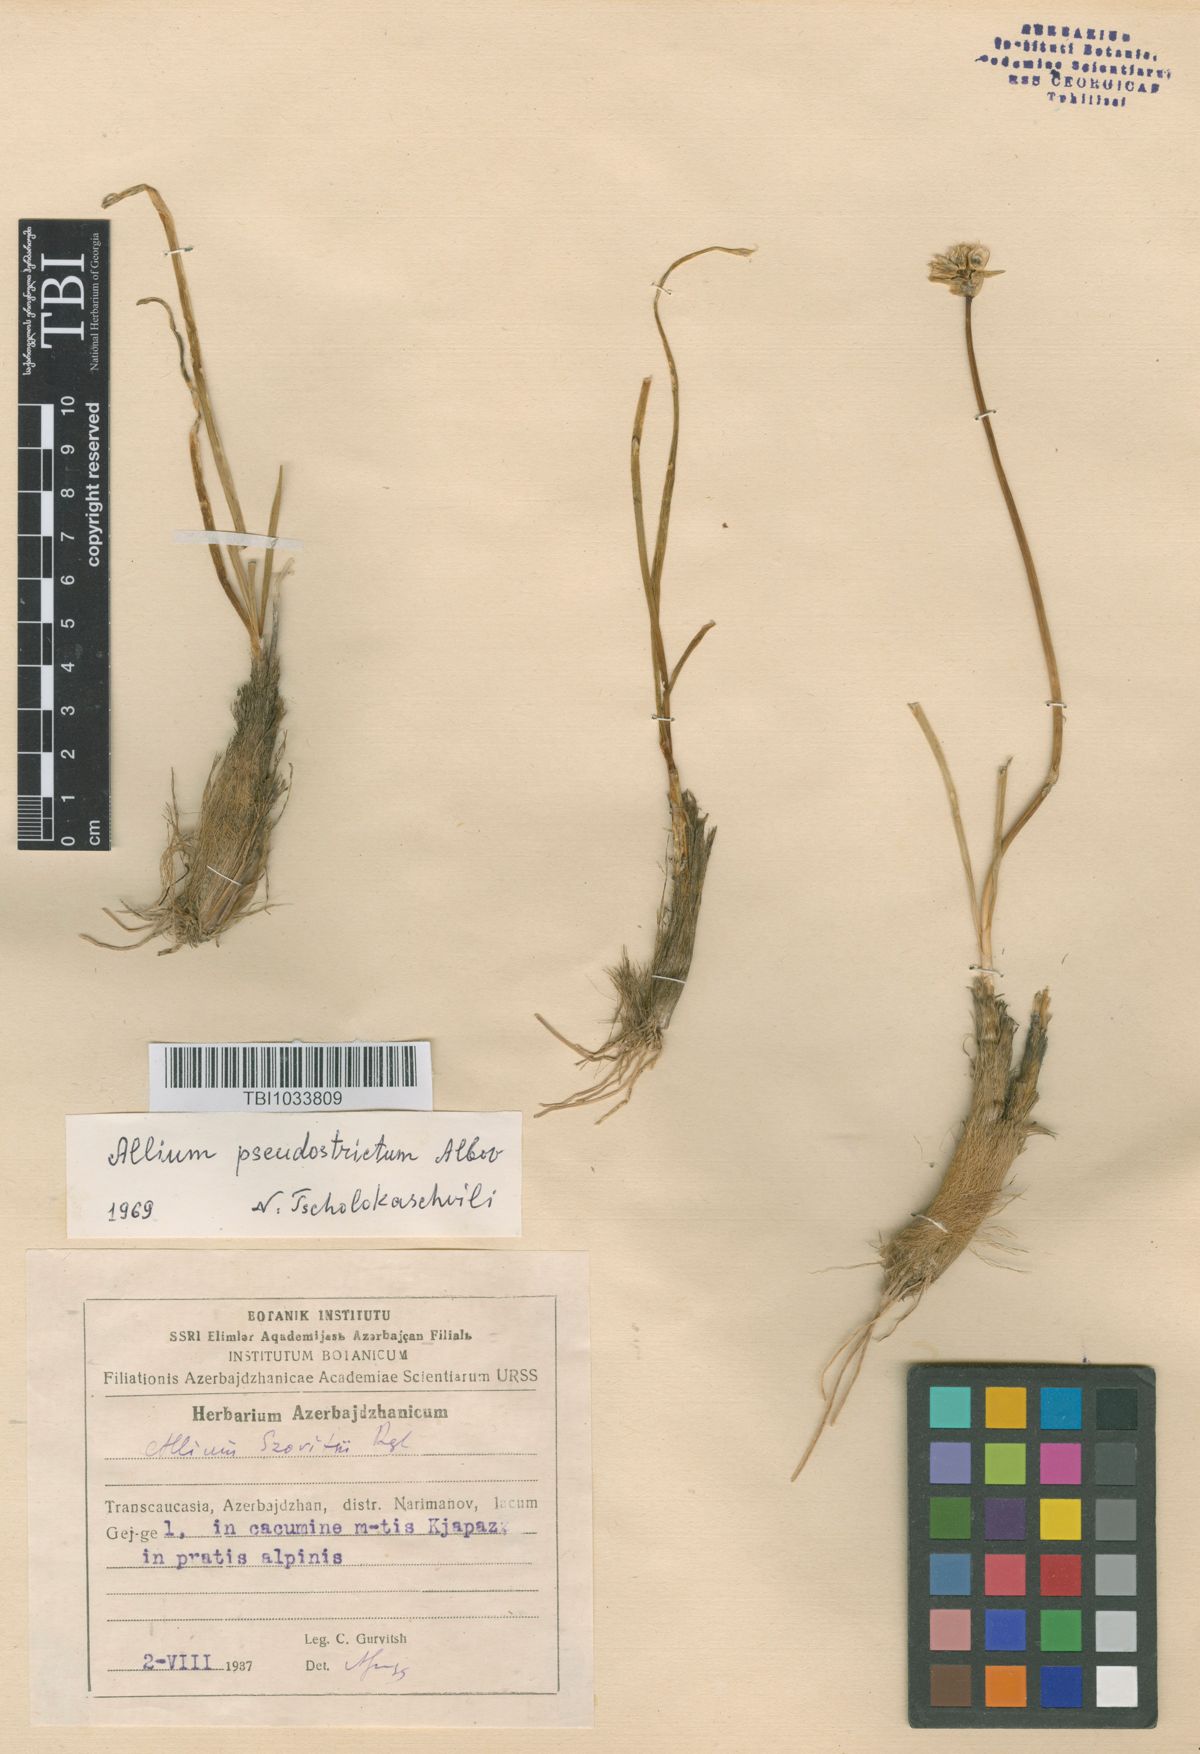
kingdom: Plantae
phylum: Tracheophyta
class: Liliopsida
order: Asparagales
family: Amaryllidaceae
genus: Allium
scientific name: Allium pseudostrictum
